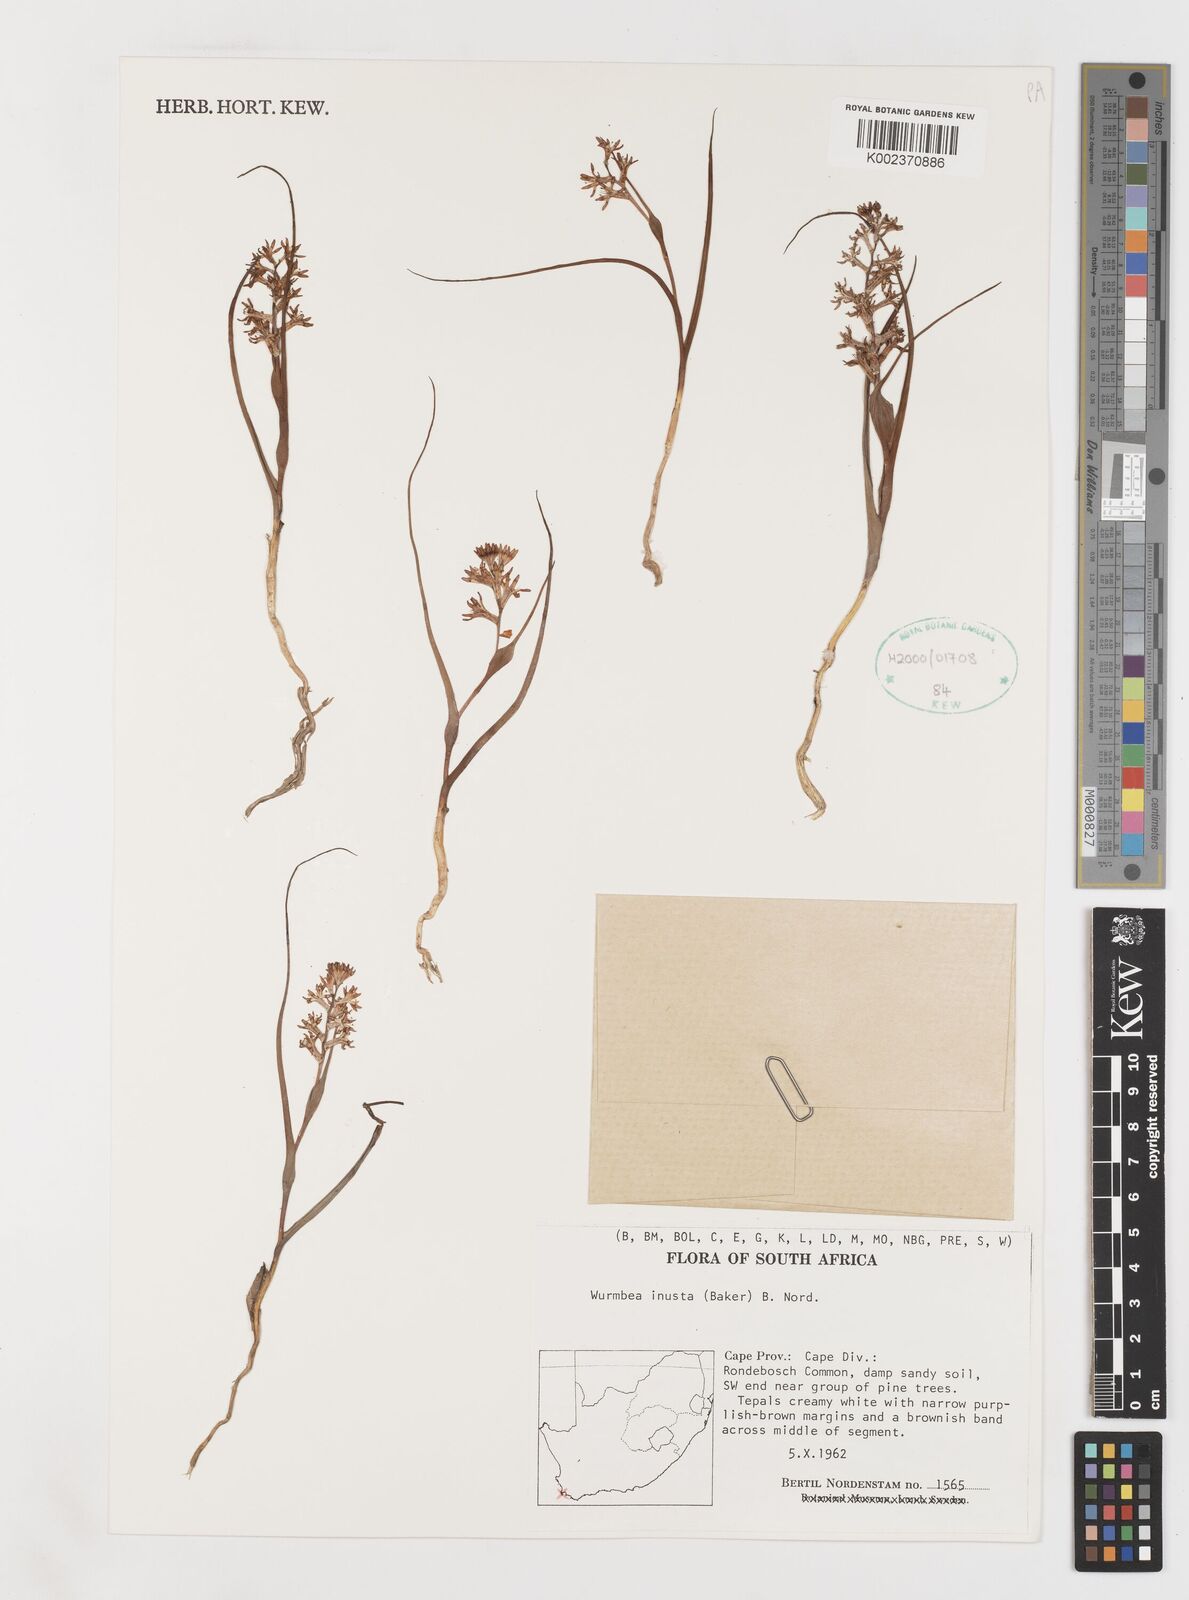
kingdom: Plantae
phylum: Tracheophyta
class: Liliopsida
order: Liliales
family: Colchicaceae
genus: Wurmbea
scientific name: Wurmbea inusta
